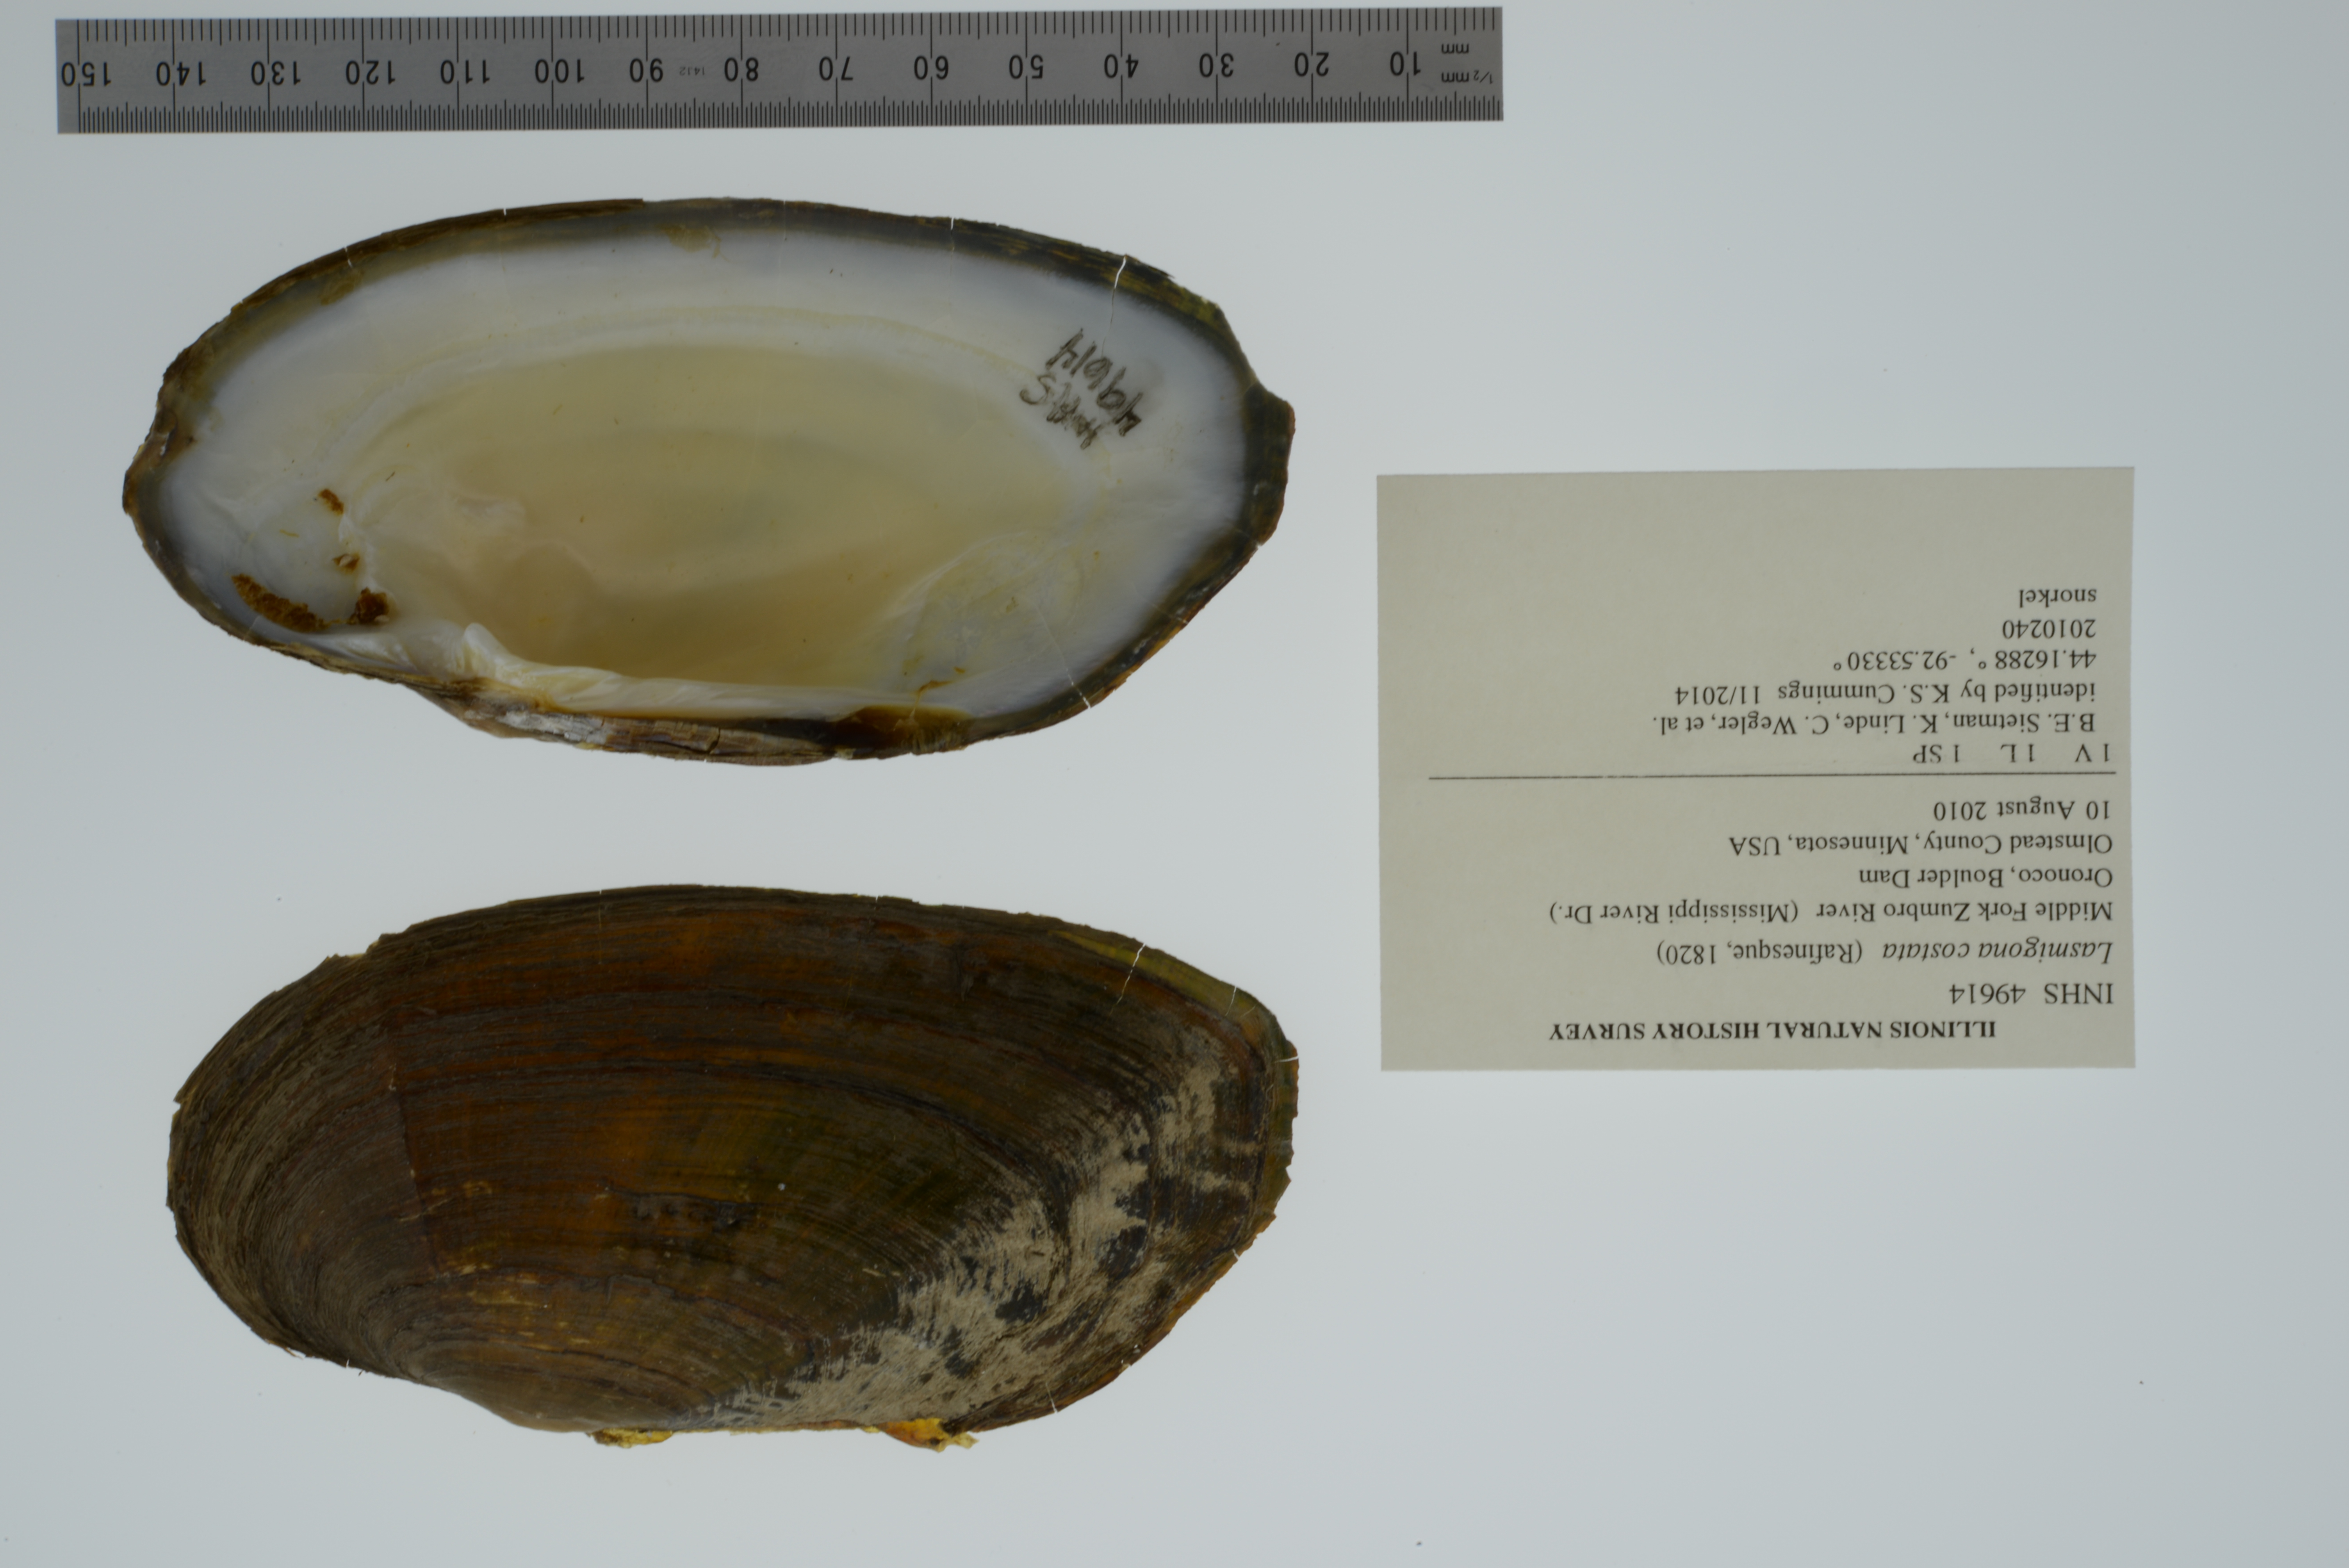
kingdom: Animalia
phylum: Mollusca
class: Bivalvia
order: Unionida
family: Unionidae
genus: Lasmigona
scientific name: Lasmigona costata
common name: Flutedshell
